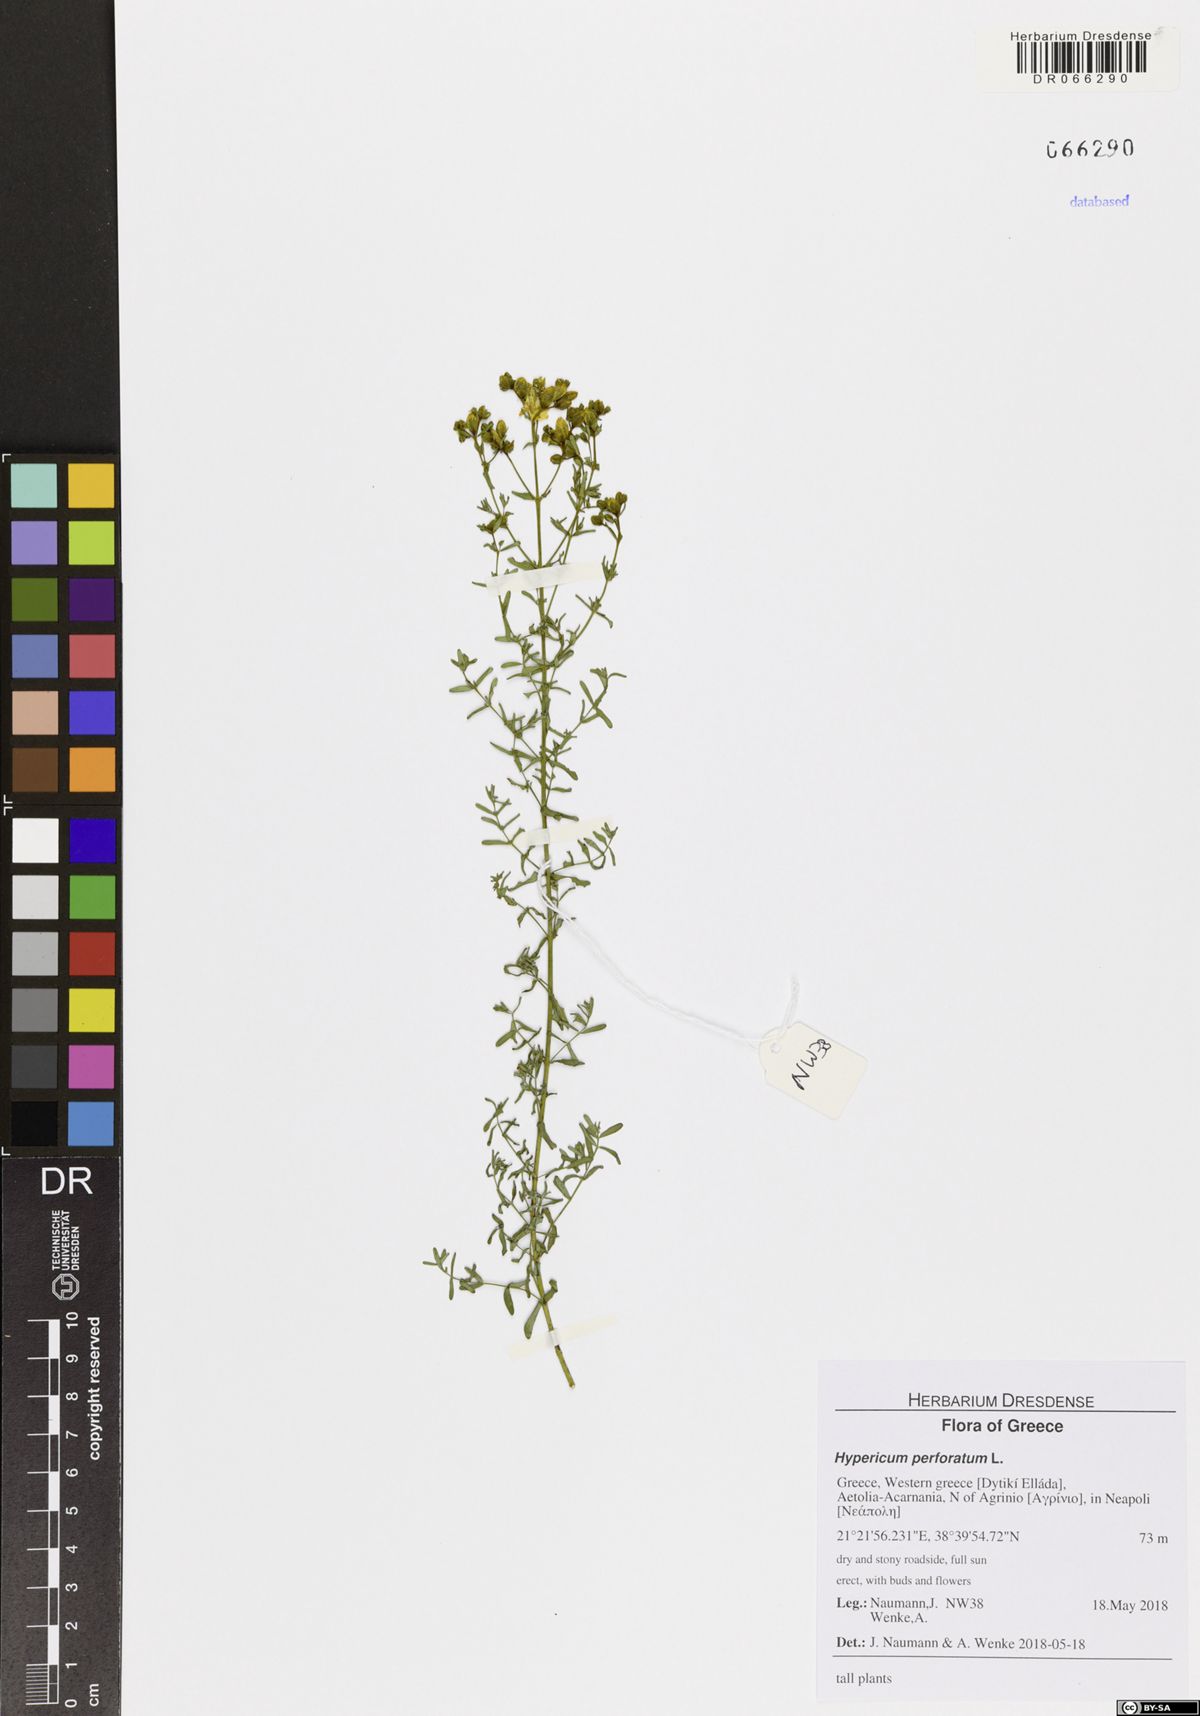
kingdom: Plantae
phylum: Tracheophyta
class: Magnoliopsida
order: Malpighiales
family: Hypericaceae
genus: Hypericum
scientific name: Hypericum perforatum
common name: Common st. johnswort
